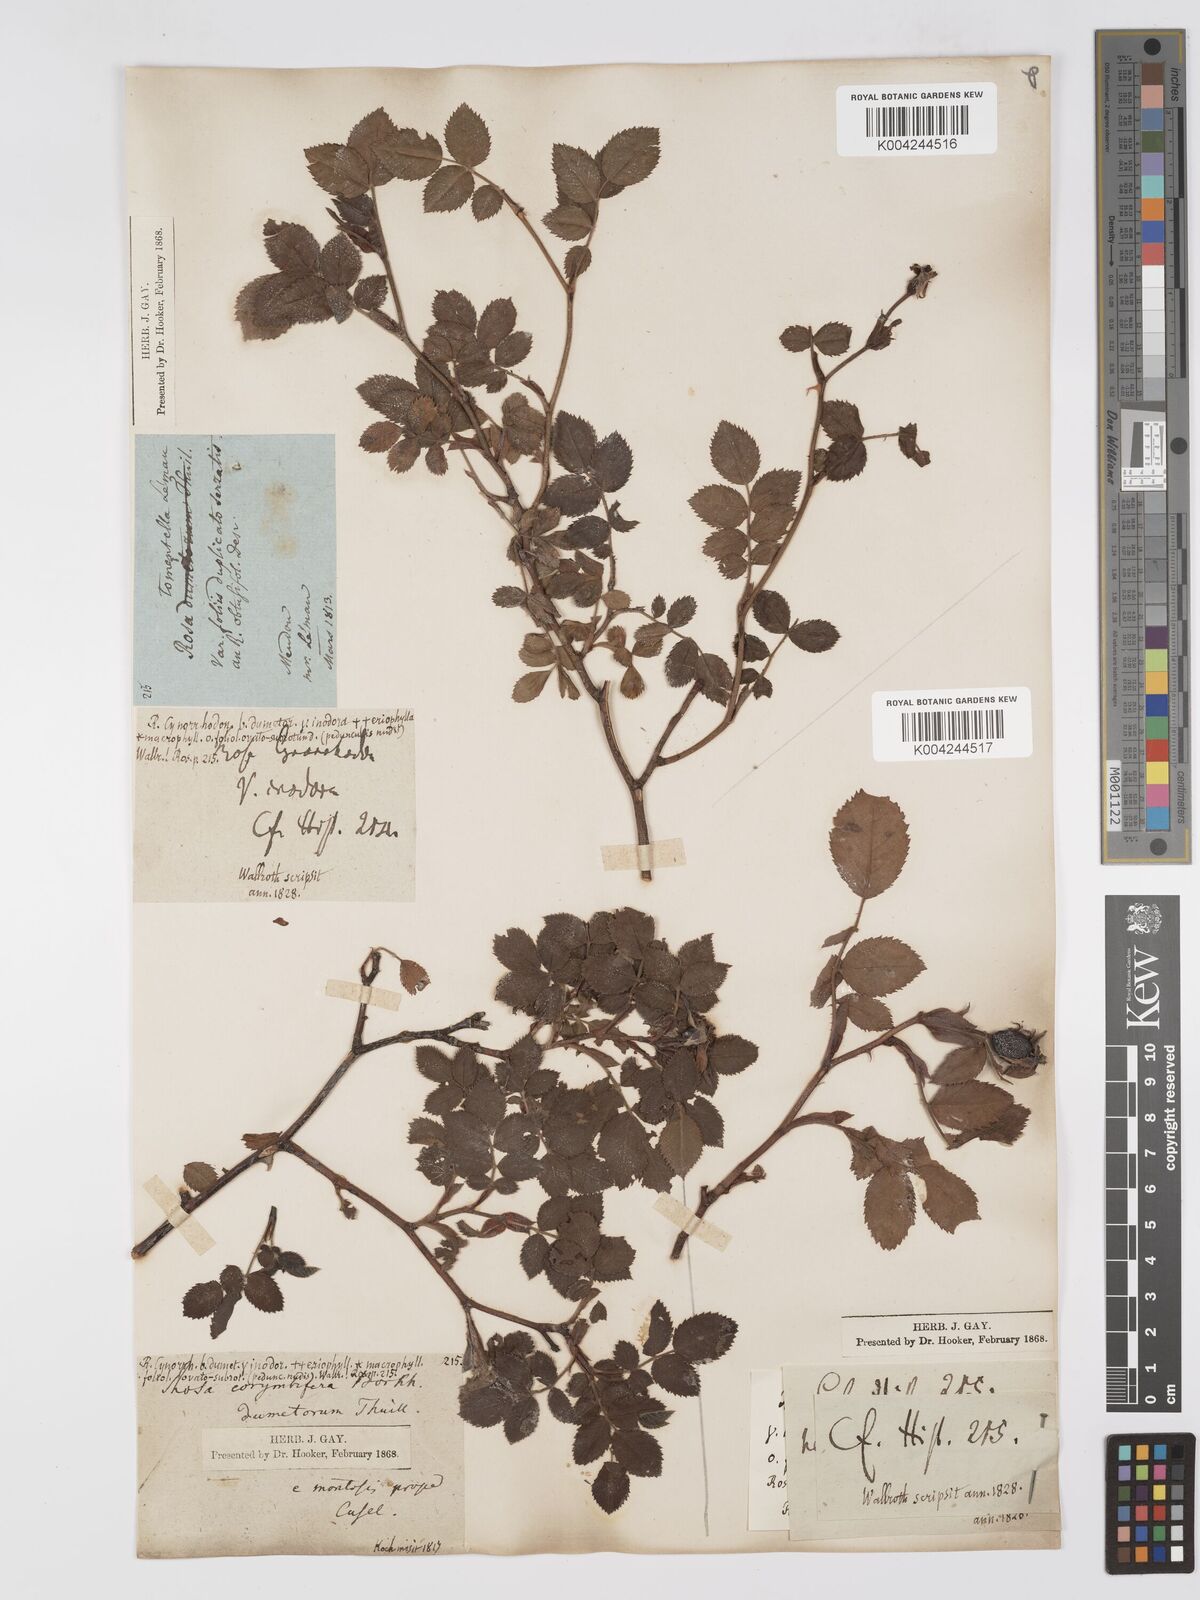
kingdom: Plantae
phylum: Tracheophyta
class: Magnoliopsida
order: Rosales
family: Rosaceae
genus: Rosa
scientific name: Rosa
